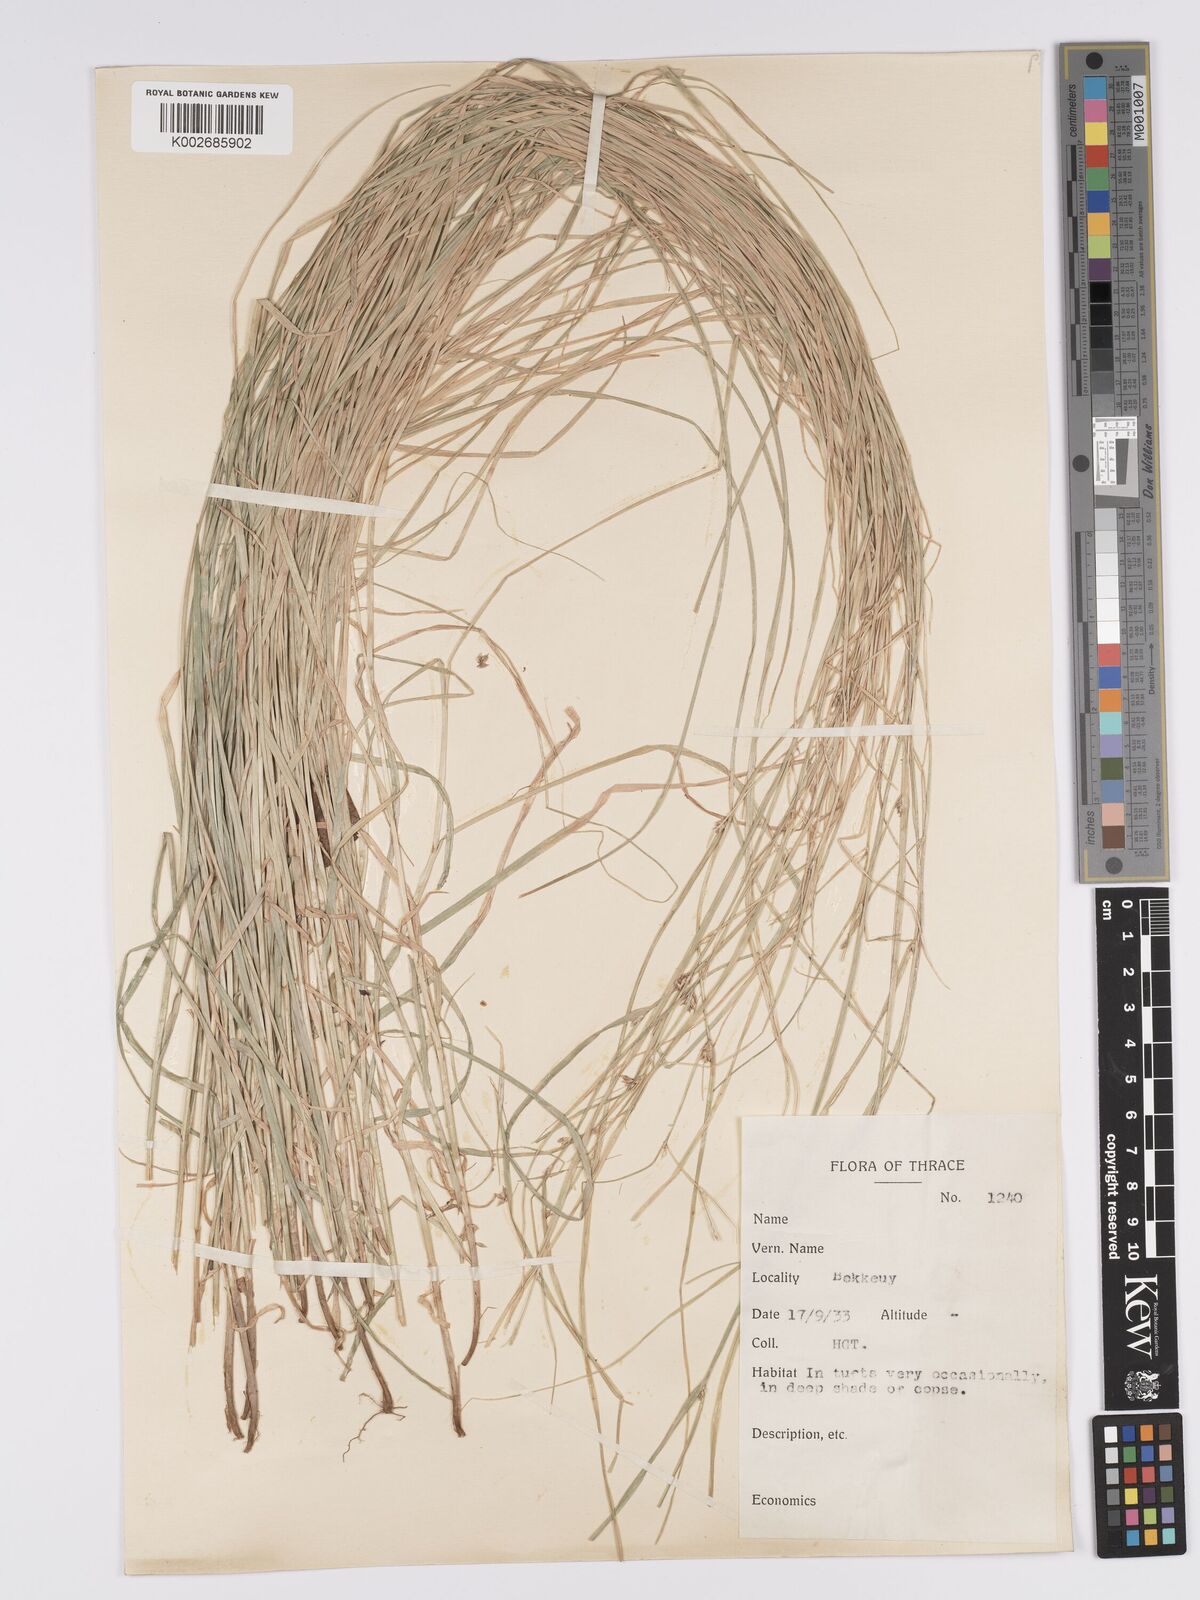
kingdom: Plantae
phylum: Tracheophyta
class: Liliopsida
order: Poales
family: Cyperaceae
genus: Carex
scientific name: Carex remota
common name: Remote sedge
